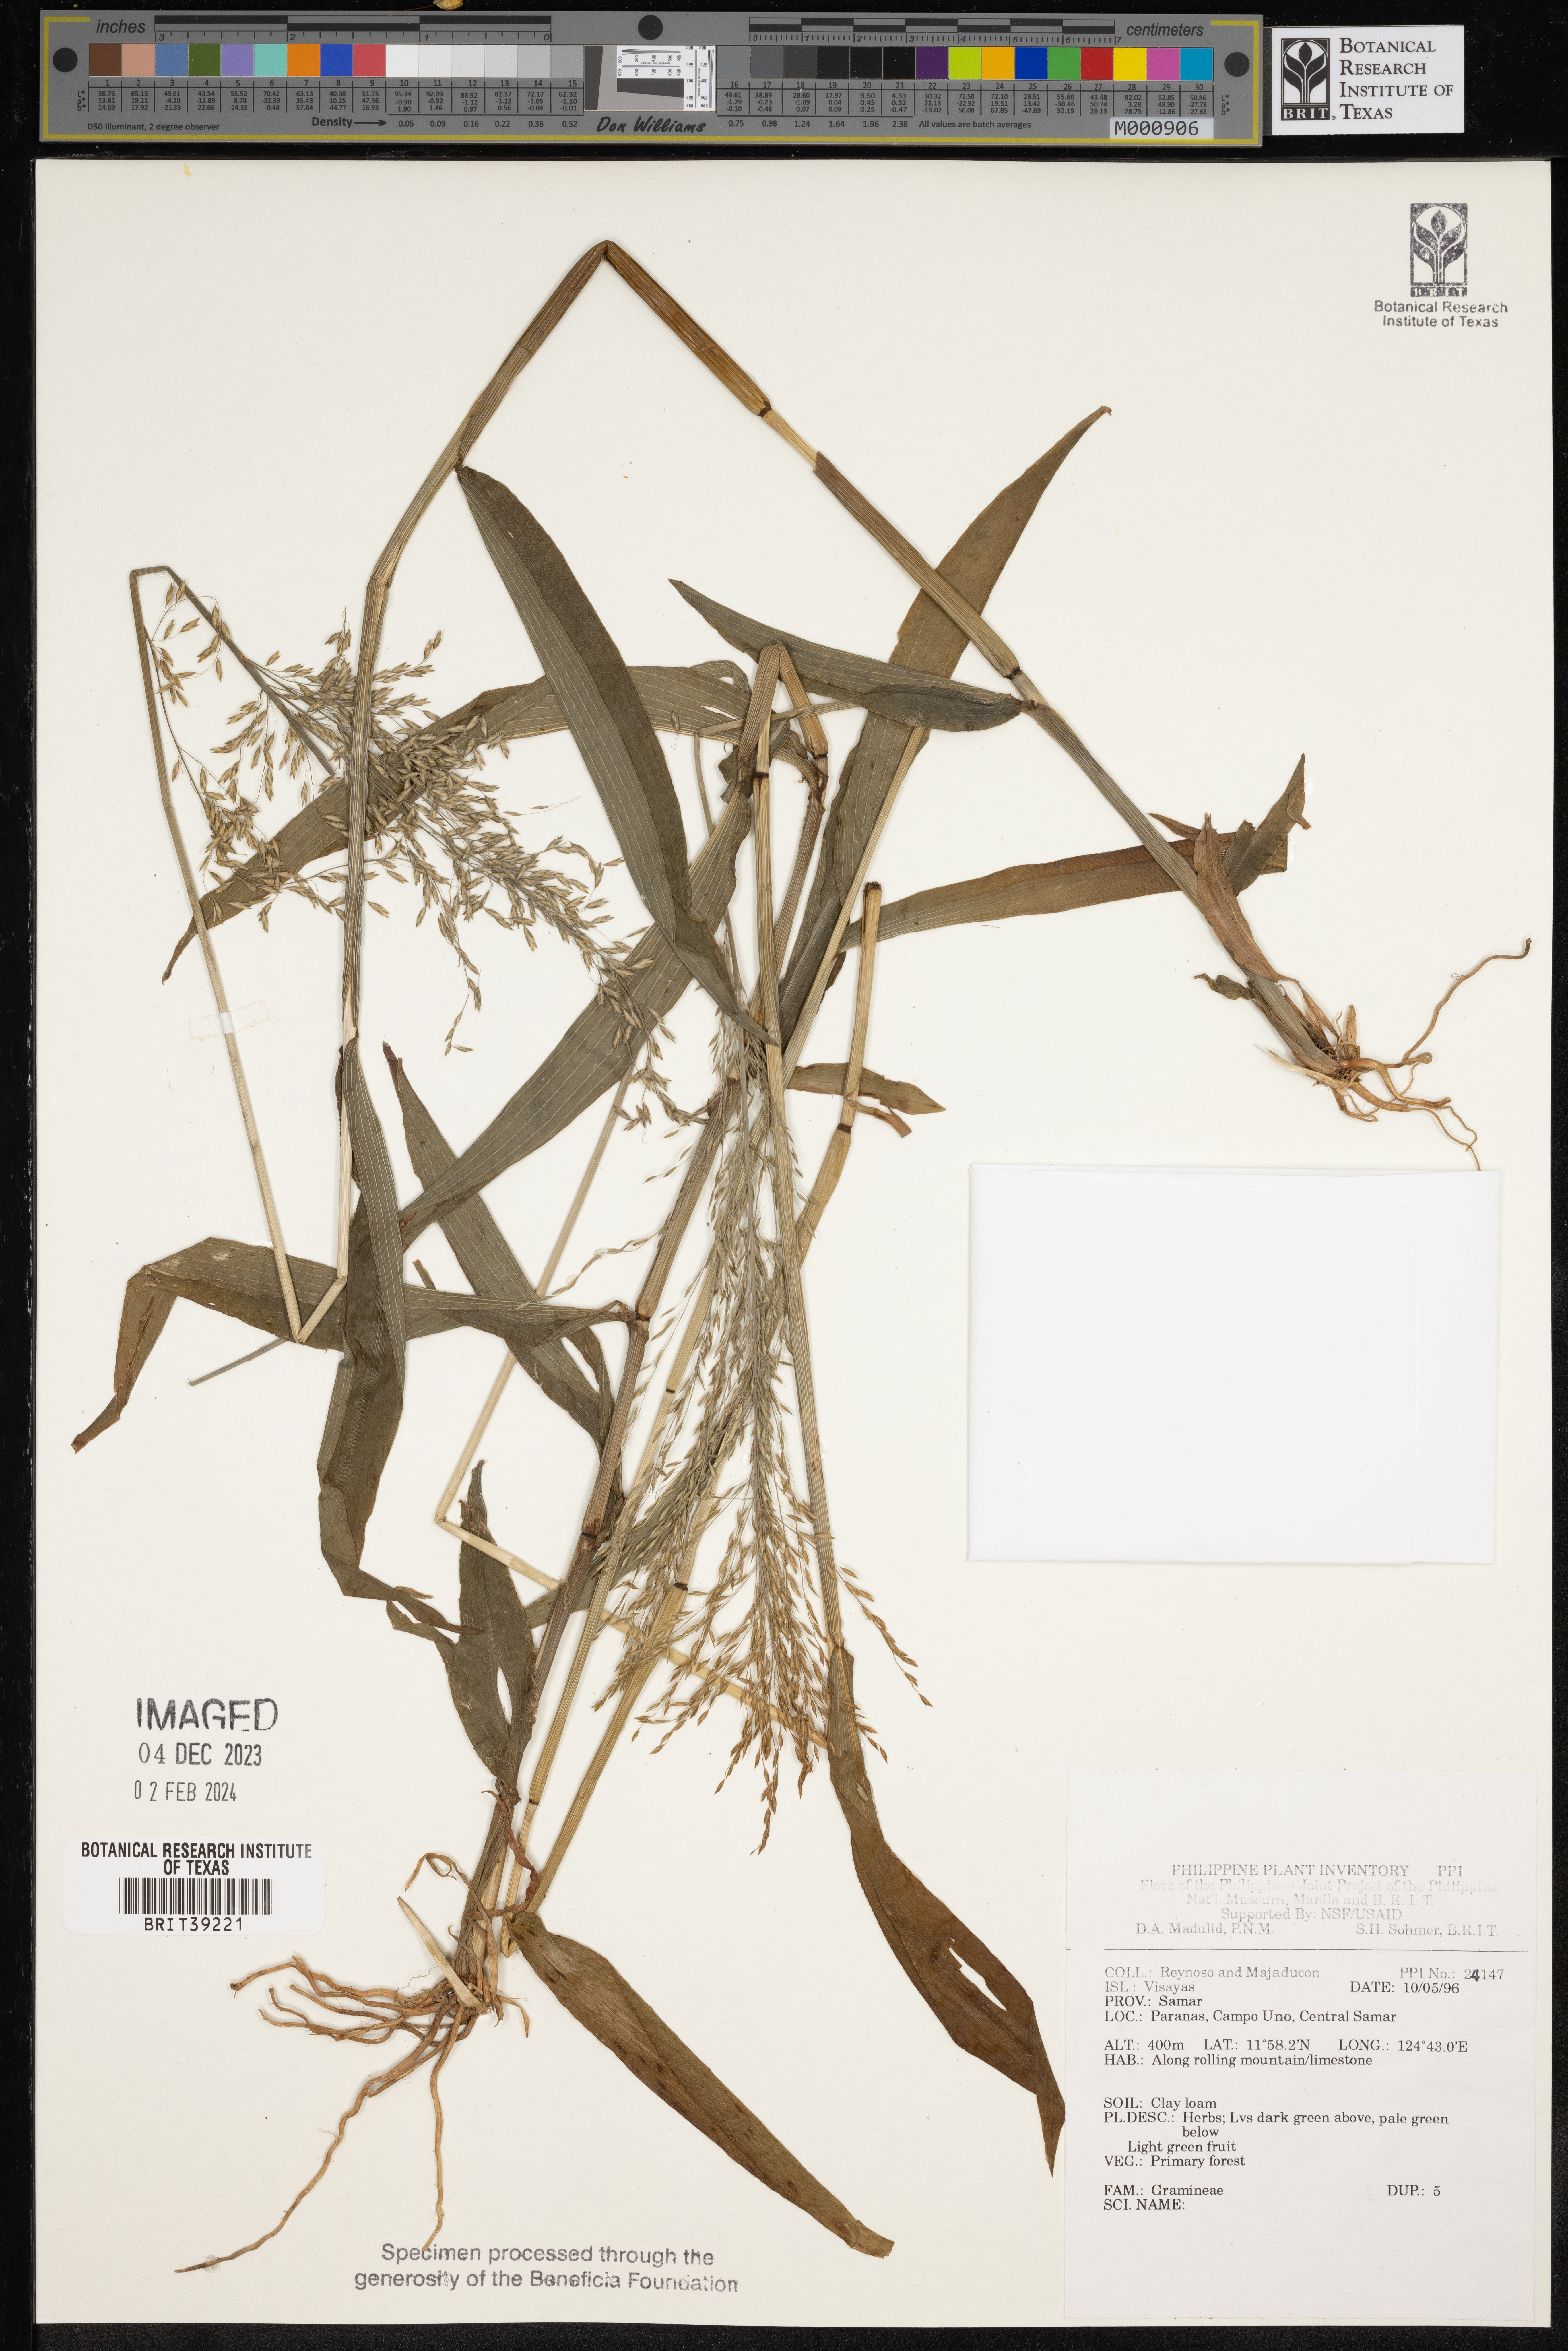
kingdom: Plantae
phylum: Tracheophyta
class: Liliopsida
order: Poales
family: Poaceae
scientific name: Poaceae
